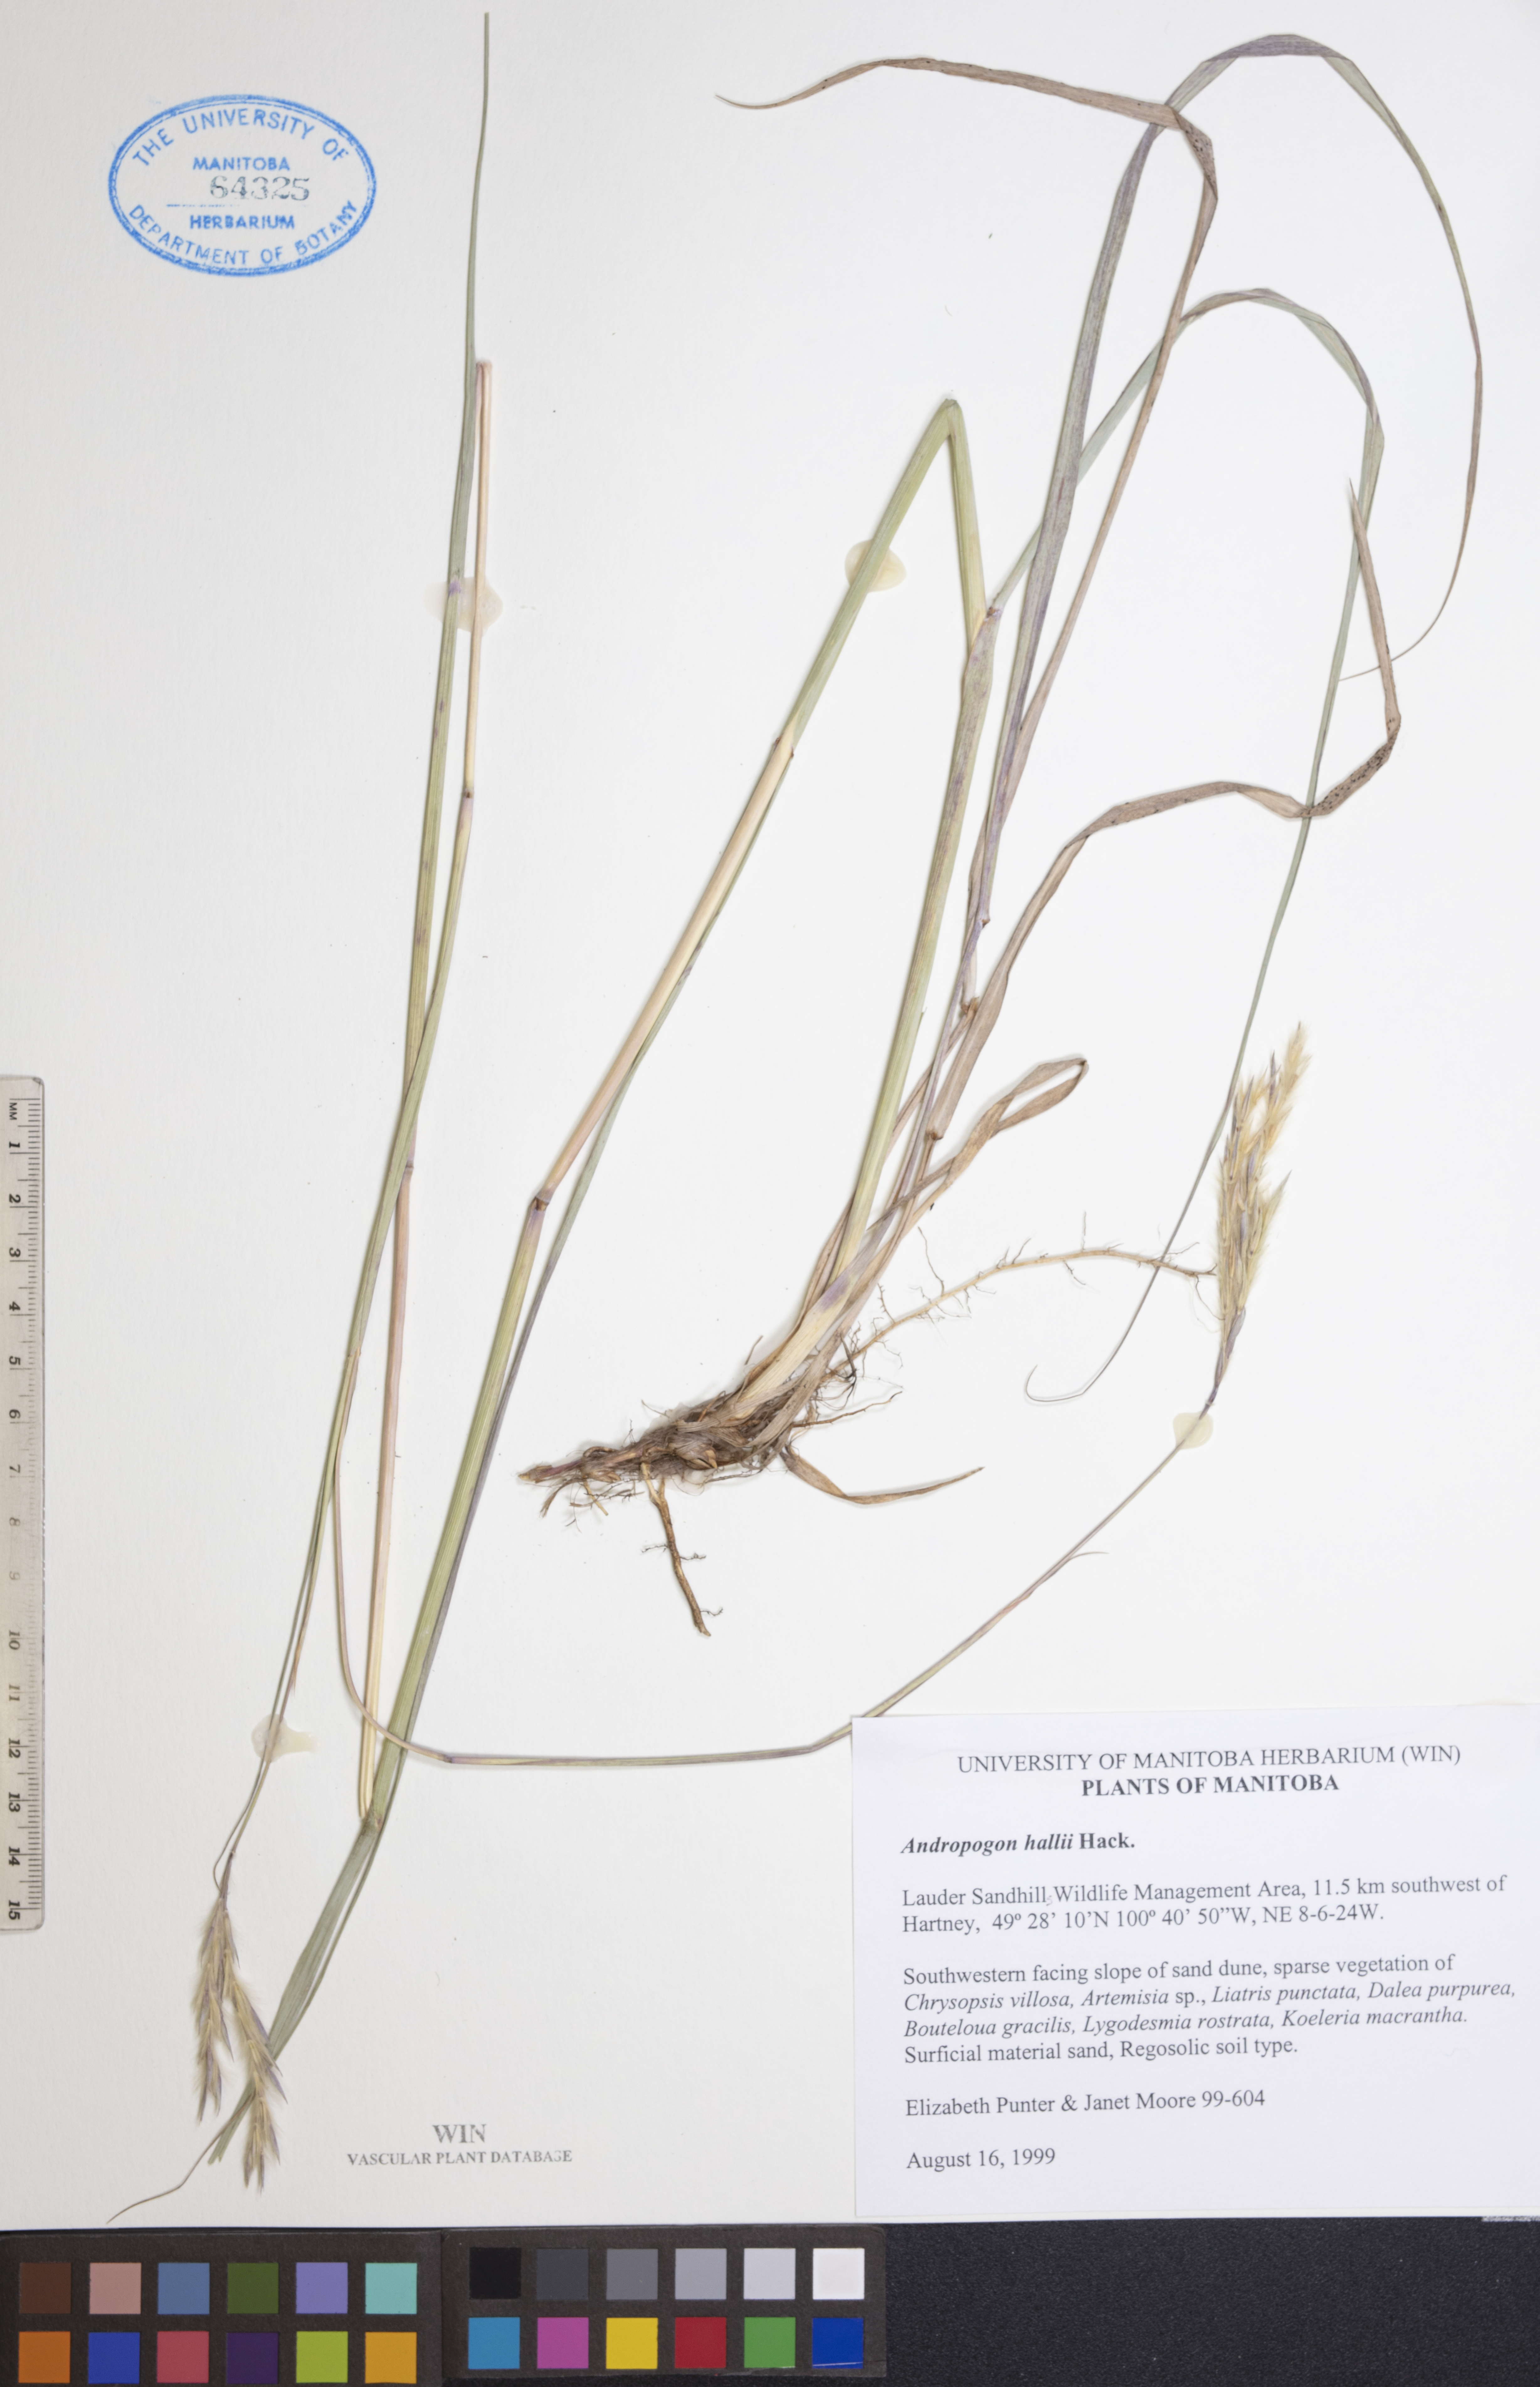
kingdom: Plantae
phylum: Tracheophyta
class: Liliopsida
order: Poales
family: Poaceae
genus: Andropogon
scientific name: Andropogon hallii
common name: Sand bluestem
